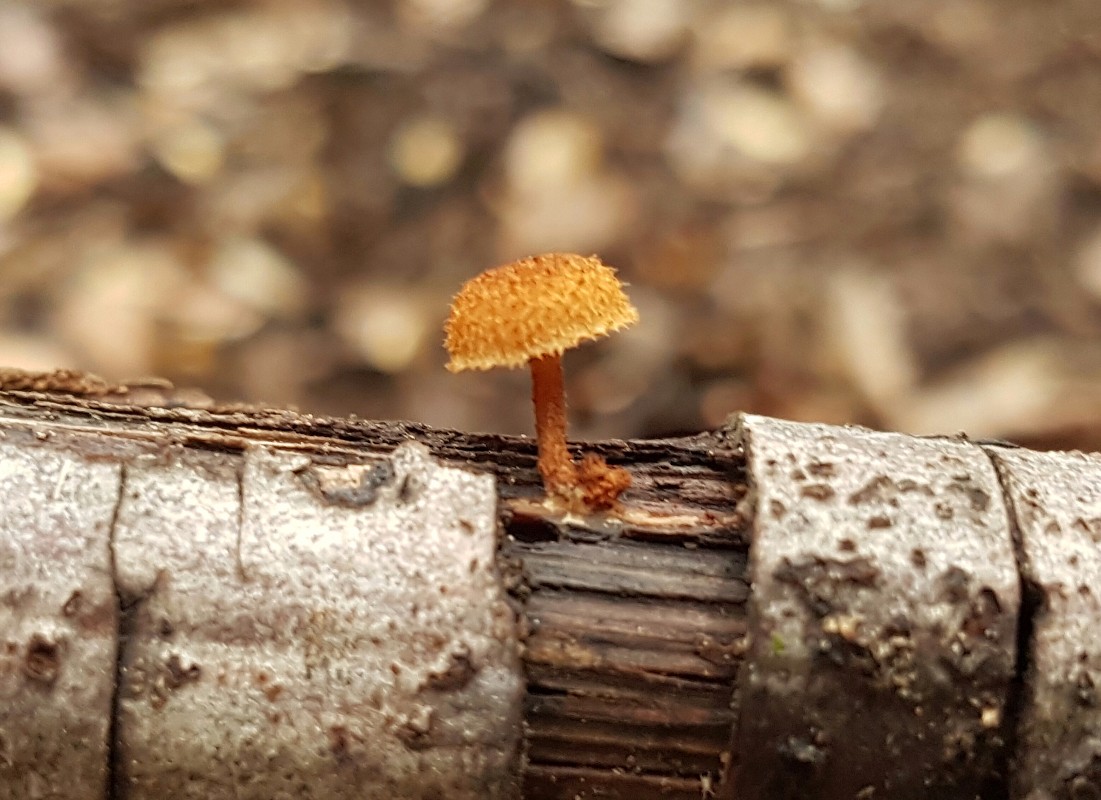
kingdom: Fungi
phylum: Basidiomycota
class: Agaricomycetes
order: Agaricales
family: Tubariaceae
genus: Phaeomarasmius
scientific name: Phaeomarasmius erinaceus
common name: spidsskælhat
